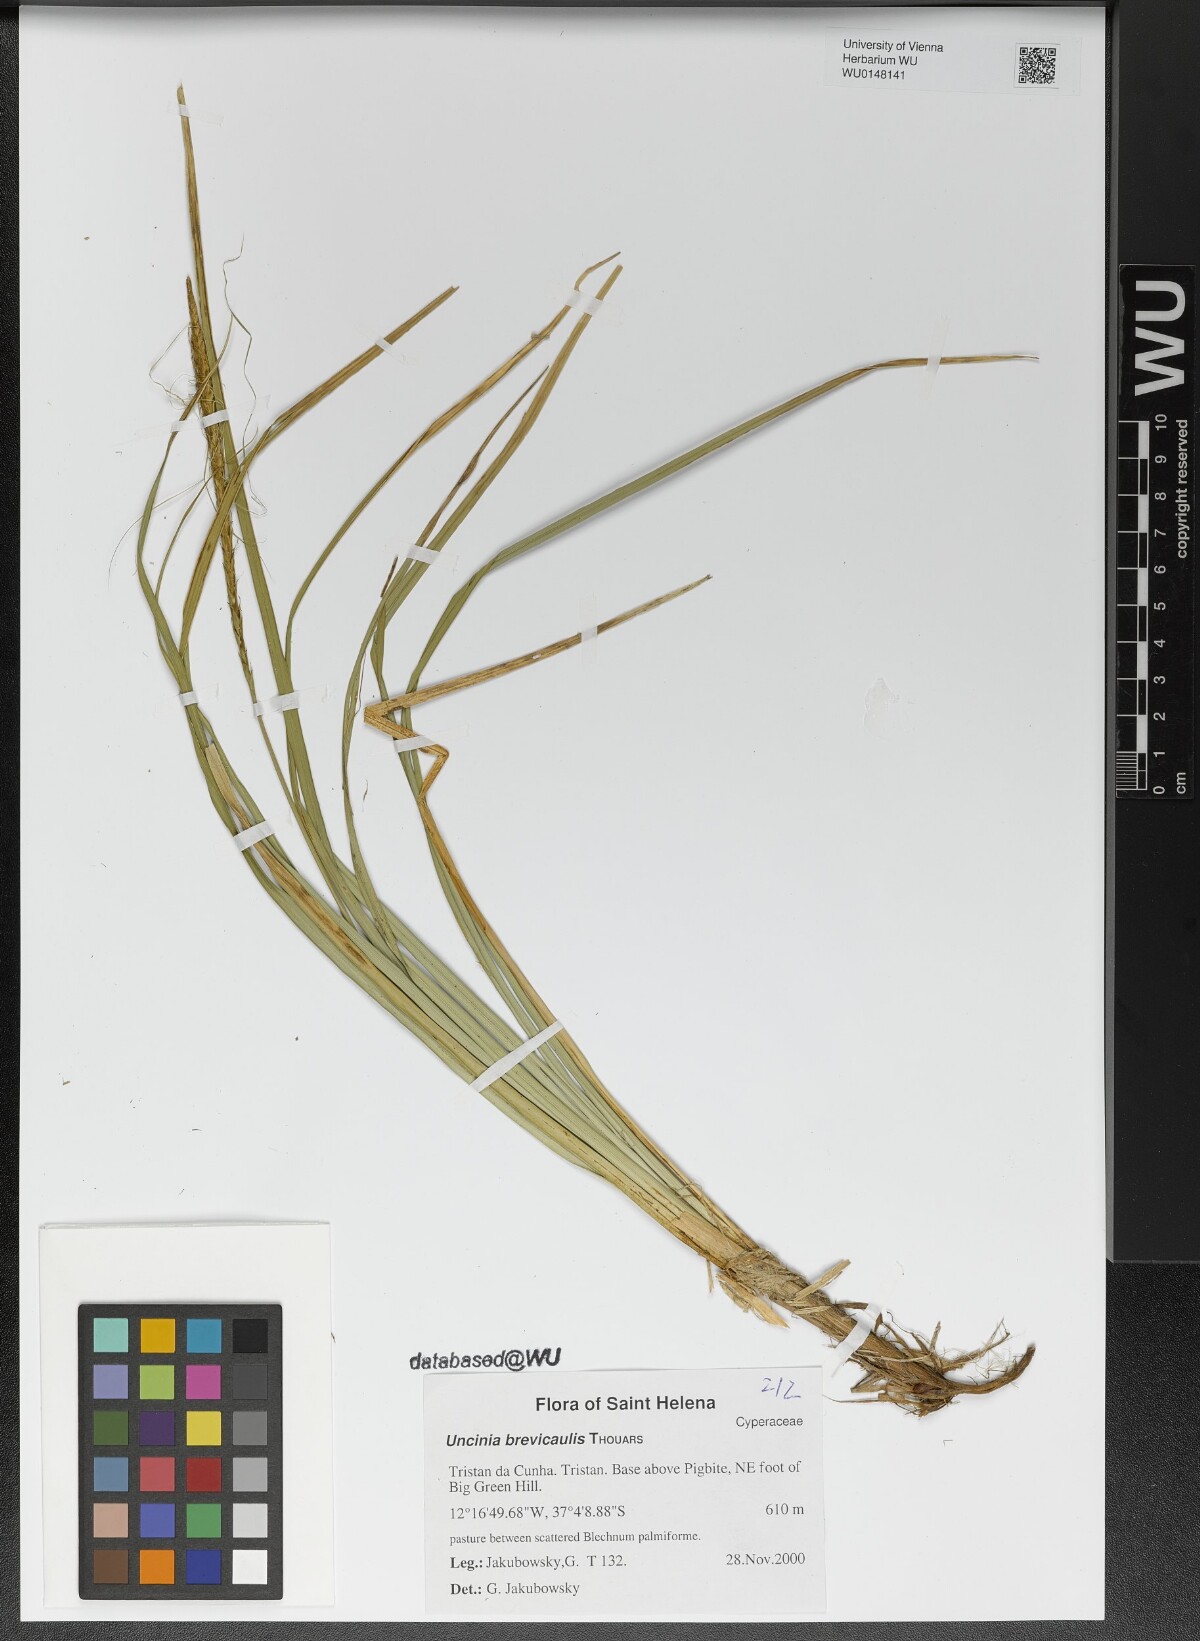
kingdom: Plantae
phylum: Tracheophyta
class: Liliopsida
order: Poales
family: Cyperaceae
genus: Carex
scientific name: Carex Uncinia brevicaulis
